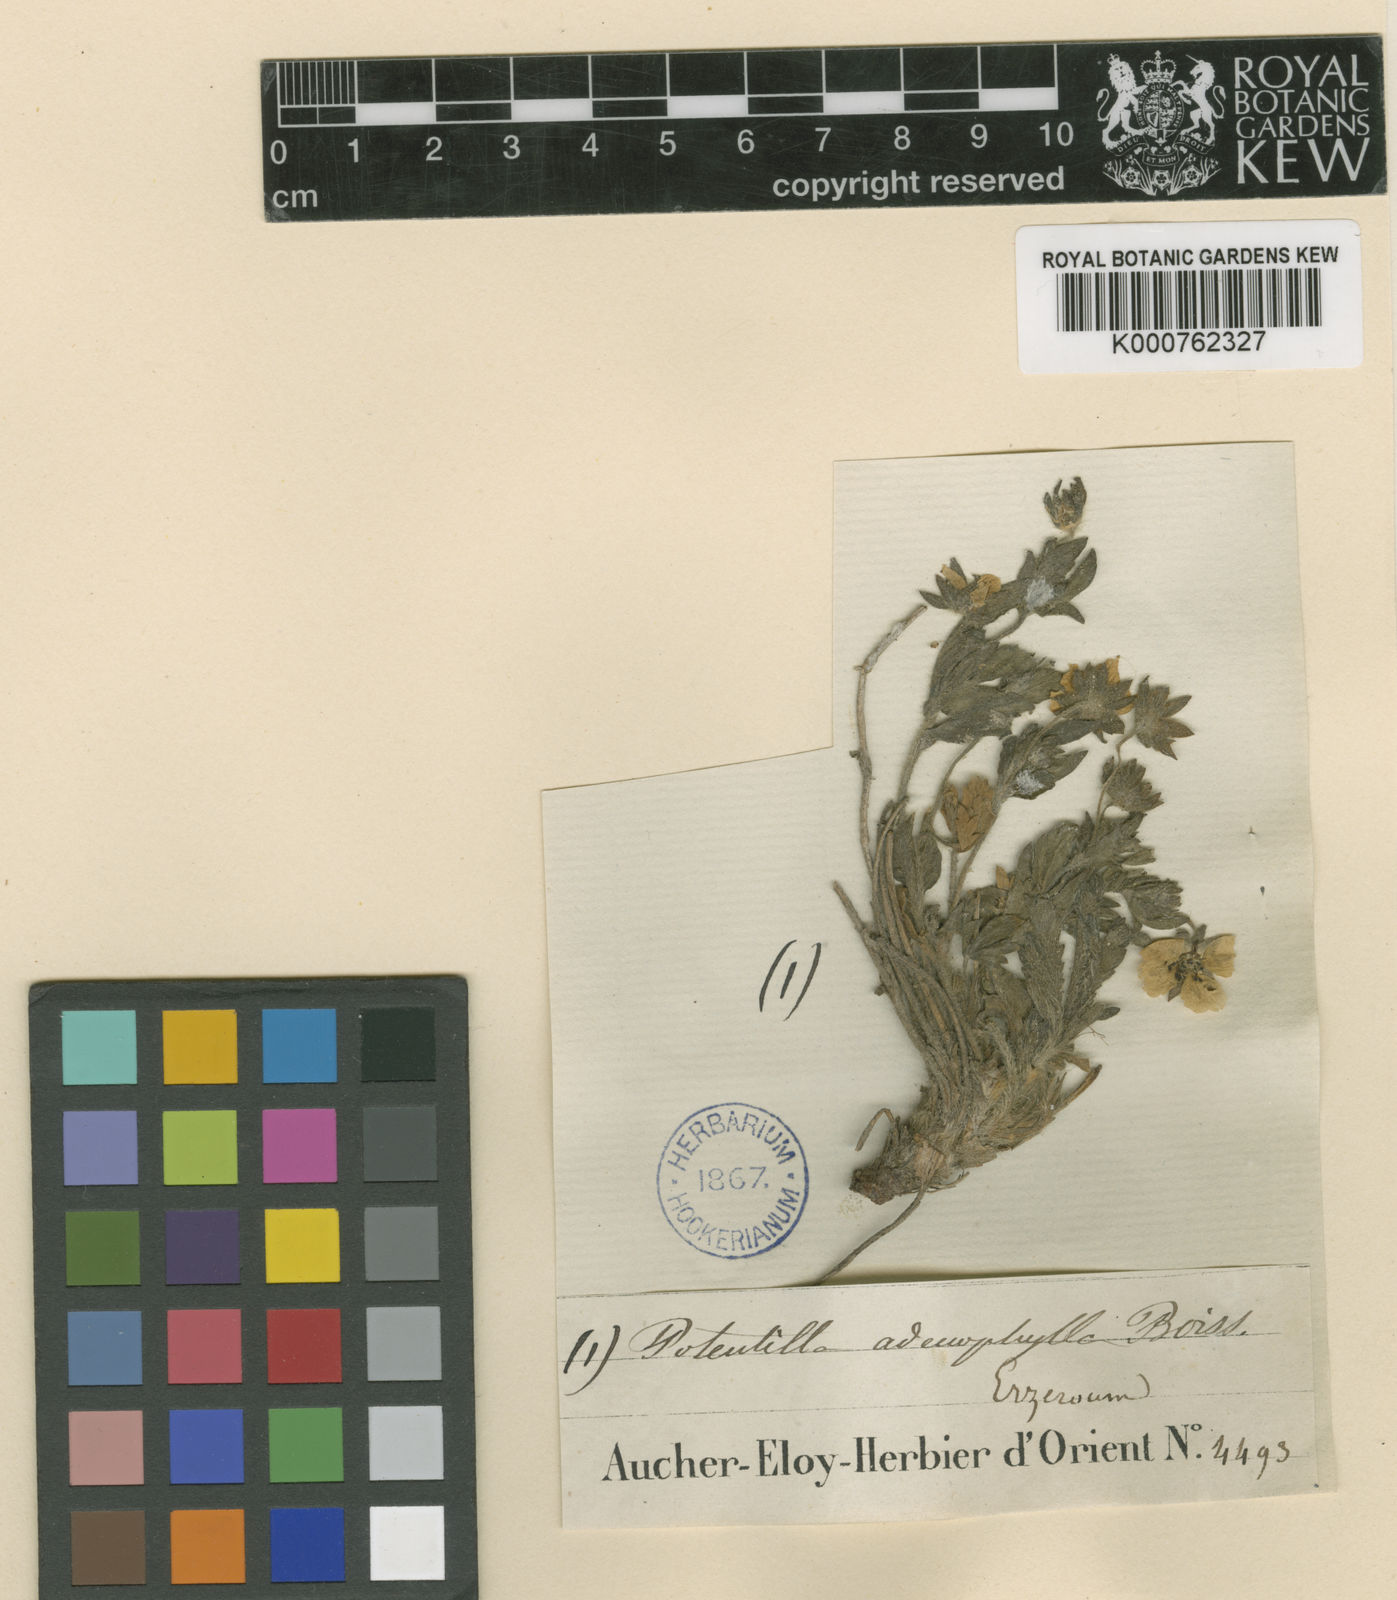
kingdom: Plantae
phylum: Tracheophyta
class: Magnoliopsida
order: Rosales
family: Rosaceae
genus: Potentilla
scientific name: Potentilla humifusa
